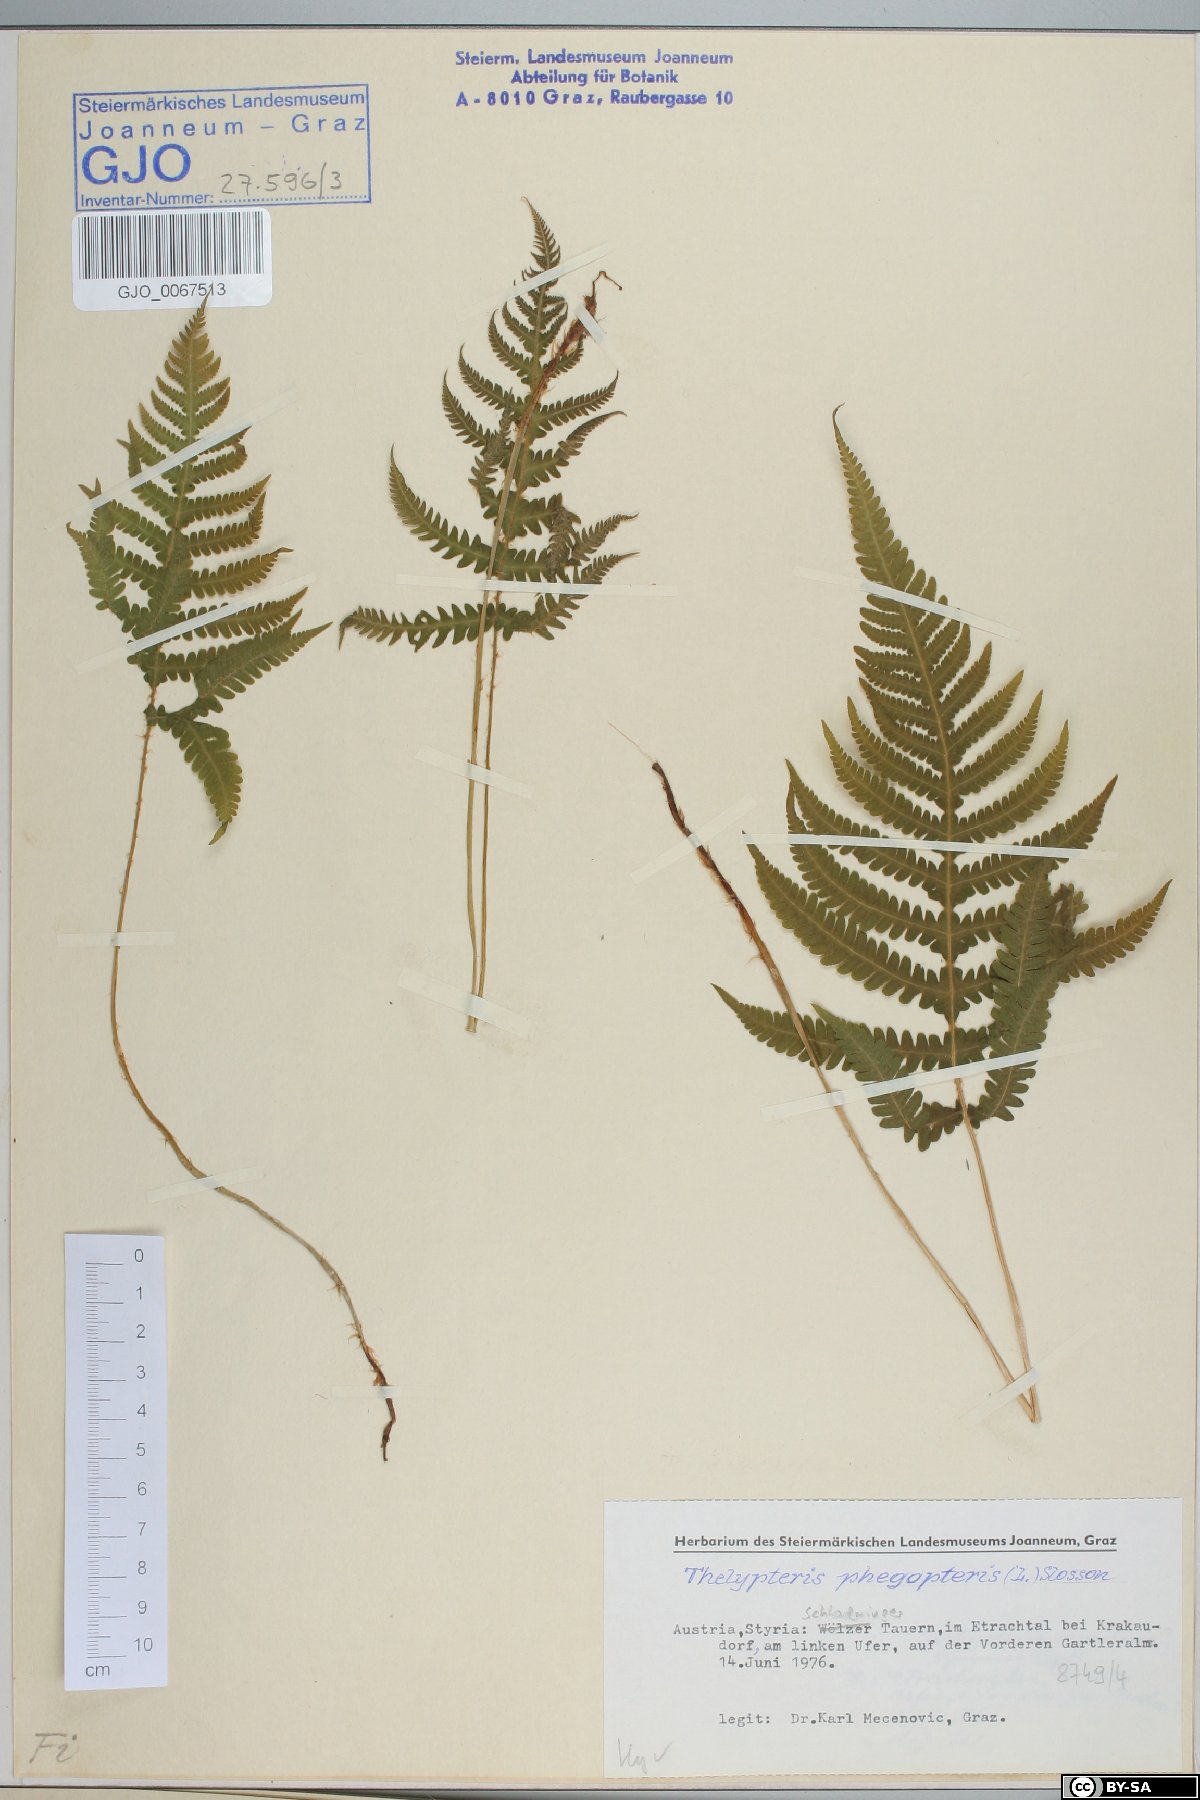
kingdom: Plantae
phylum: Tracheophyta
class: Polypodiopsida
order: Polypodiales
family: Thelypteridaceae
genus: Phegopteris
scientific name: Phegopteris connectilis
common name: Beech fern
